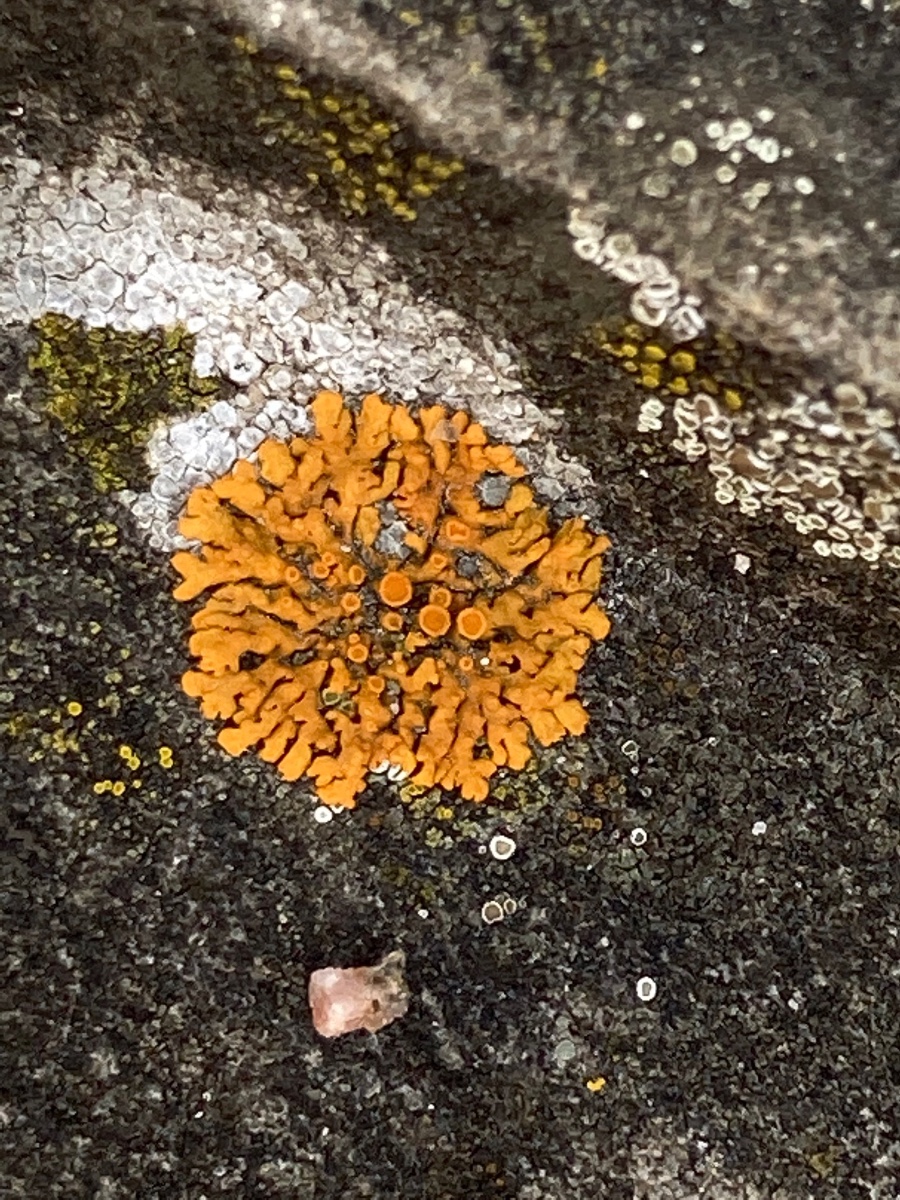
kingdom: Fungi
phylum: Ascomycota
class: Lecanoromycetes
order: Teloschistales
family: Teloschistaceae
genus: Xanthoria
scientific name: Xanthoria elegans
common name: fjeld-væggelav
